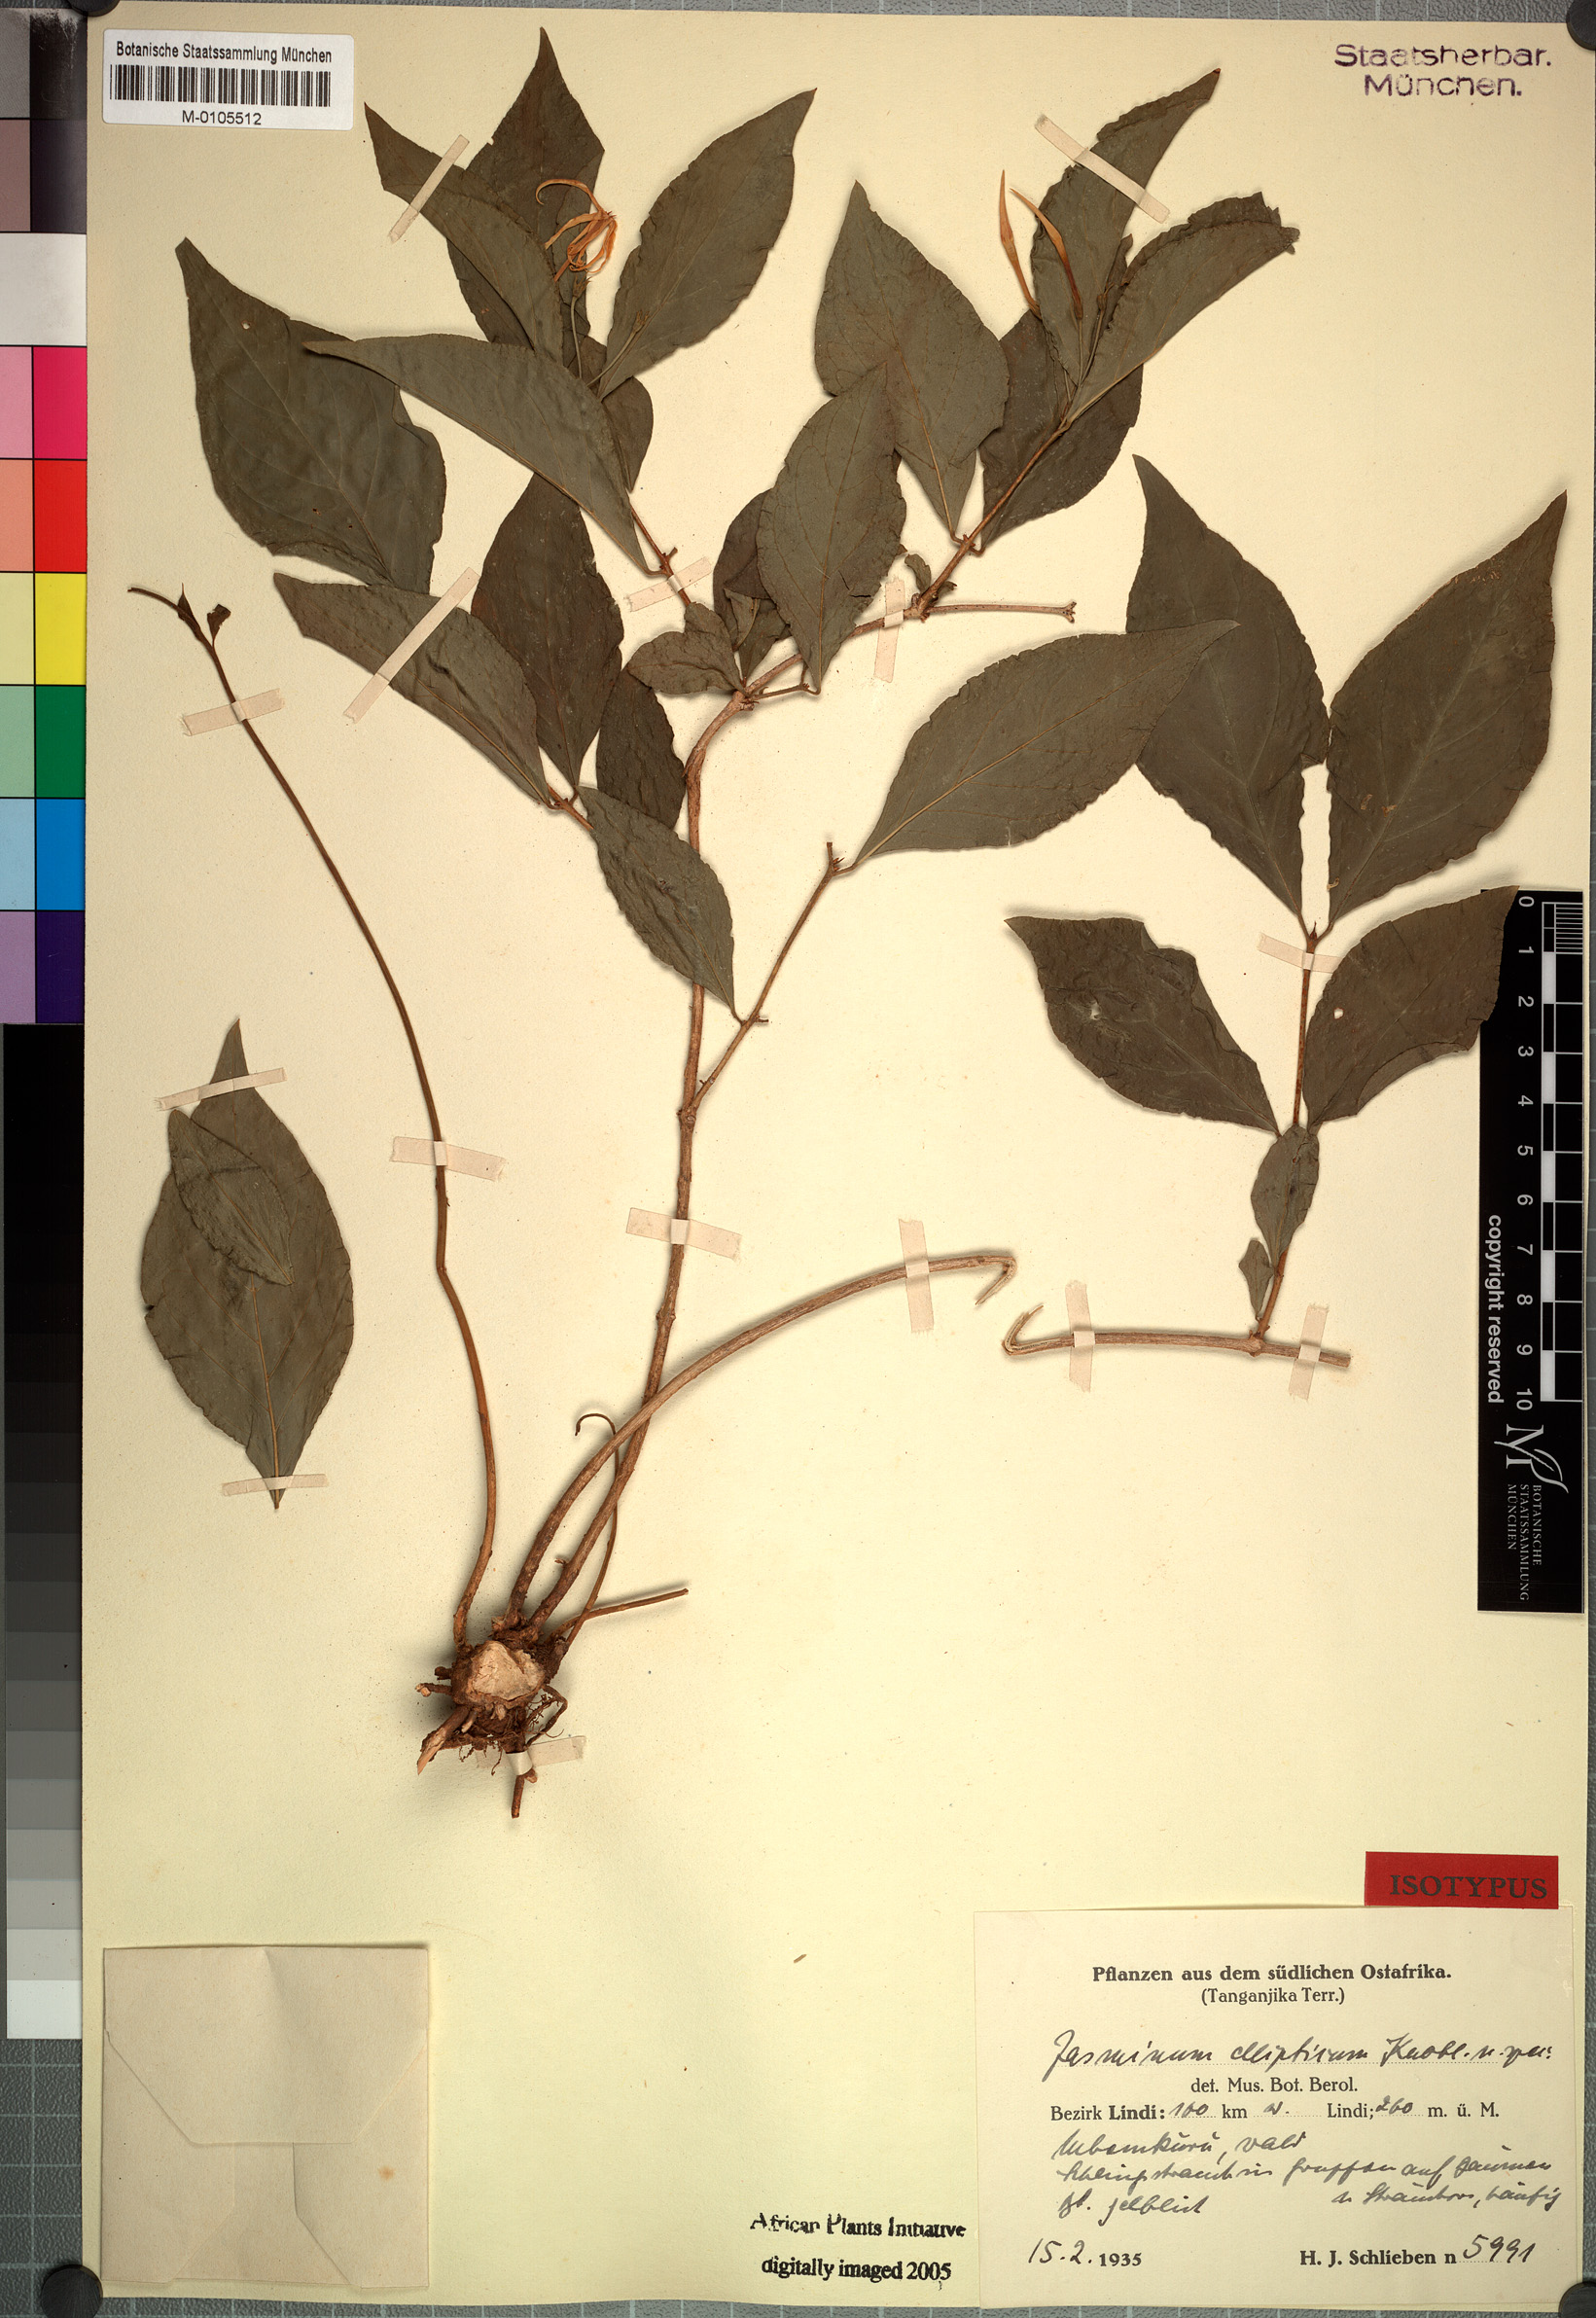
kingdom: Plantae
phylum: Tracheophyta
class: Magnoliopsida
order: Lamiales
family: Oleaceae
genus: Jasminum
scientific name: Jasminum streptopus
